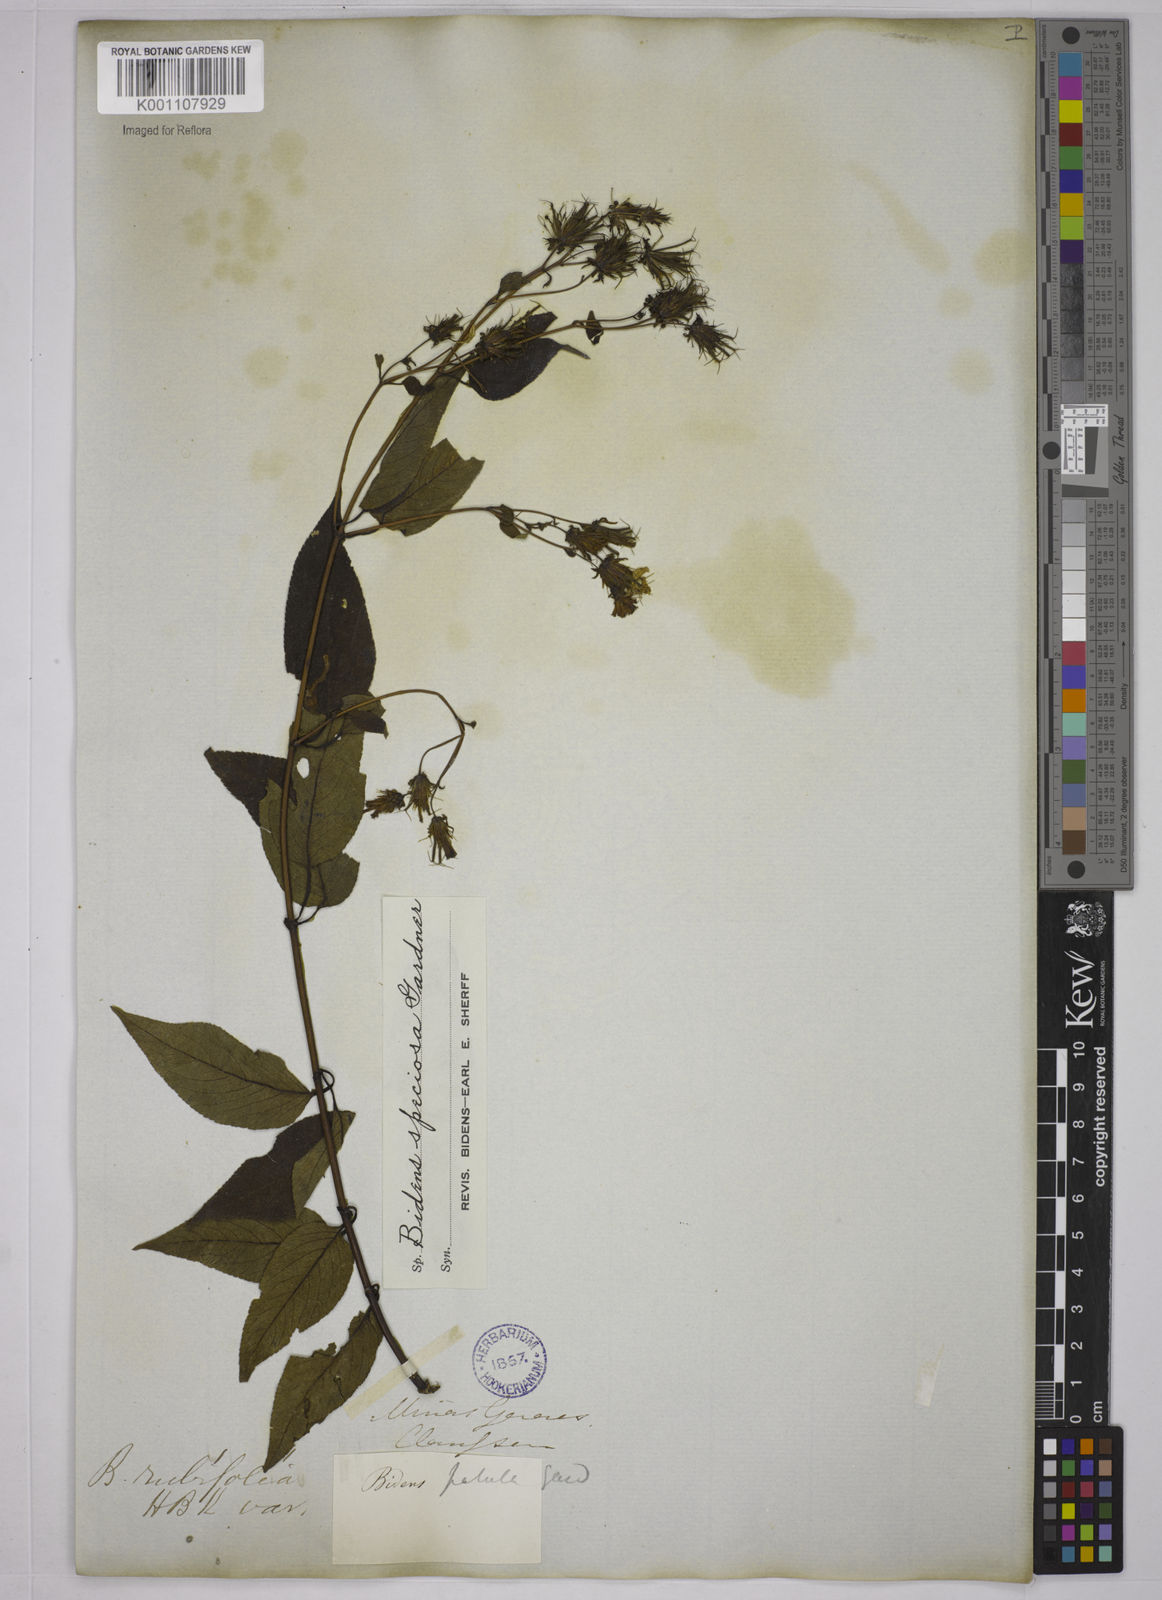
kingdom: Plantae
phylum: Tracheophyta
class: Magnoliopsida
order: Asterales
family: Asteraceae
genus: Bidens
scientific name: Bidens segetum
